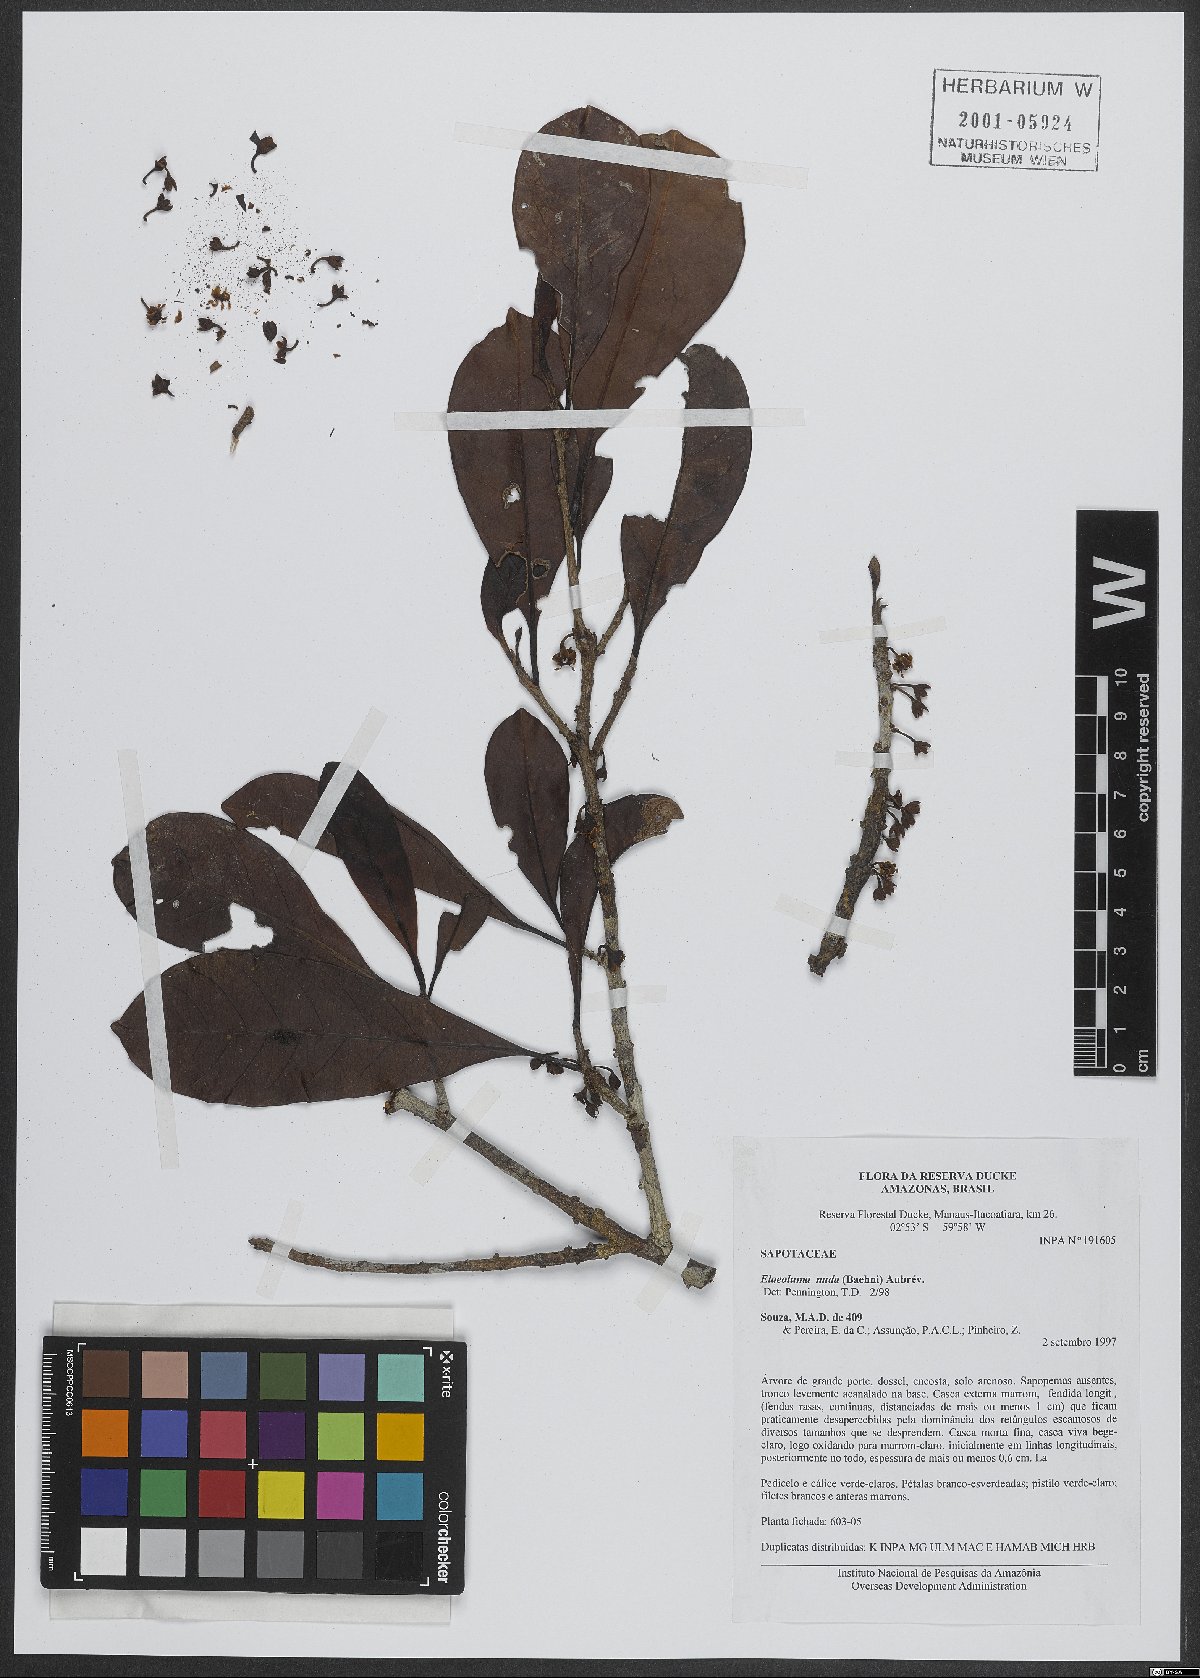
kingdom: Plantae
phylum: Tracheophyta
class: Magnoliopsida
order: Ericales
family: Sapotaceae
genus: Elaeoluma
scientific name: Elaeoluma nuda
